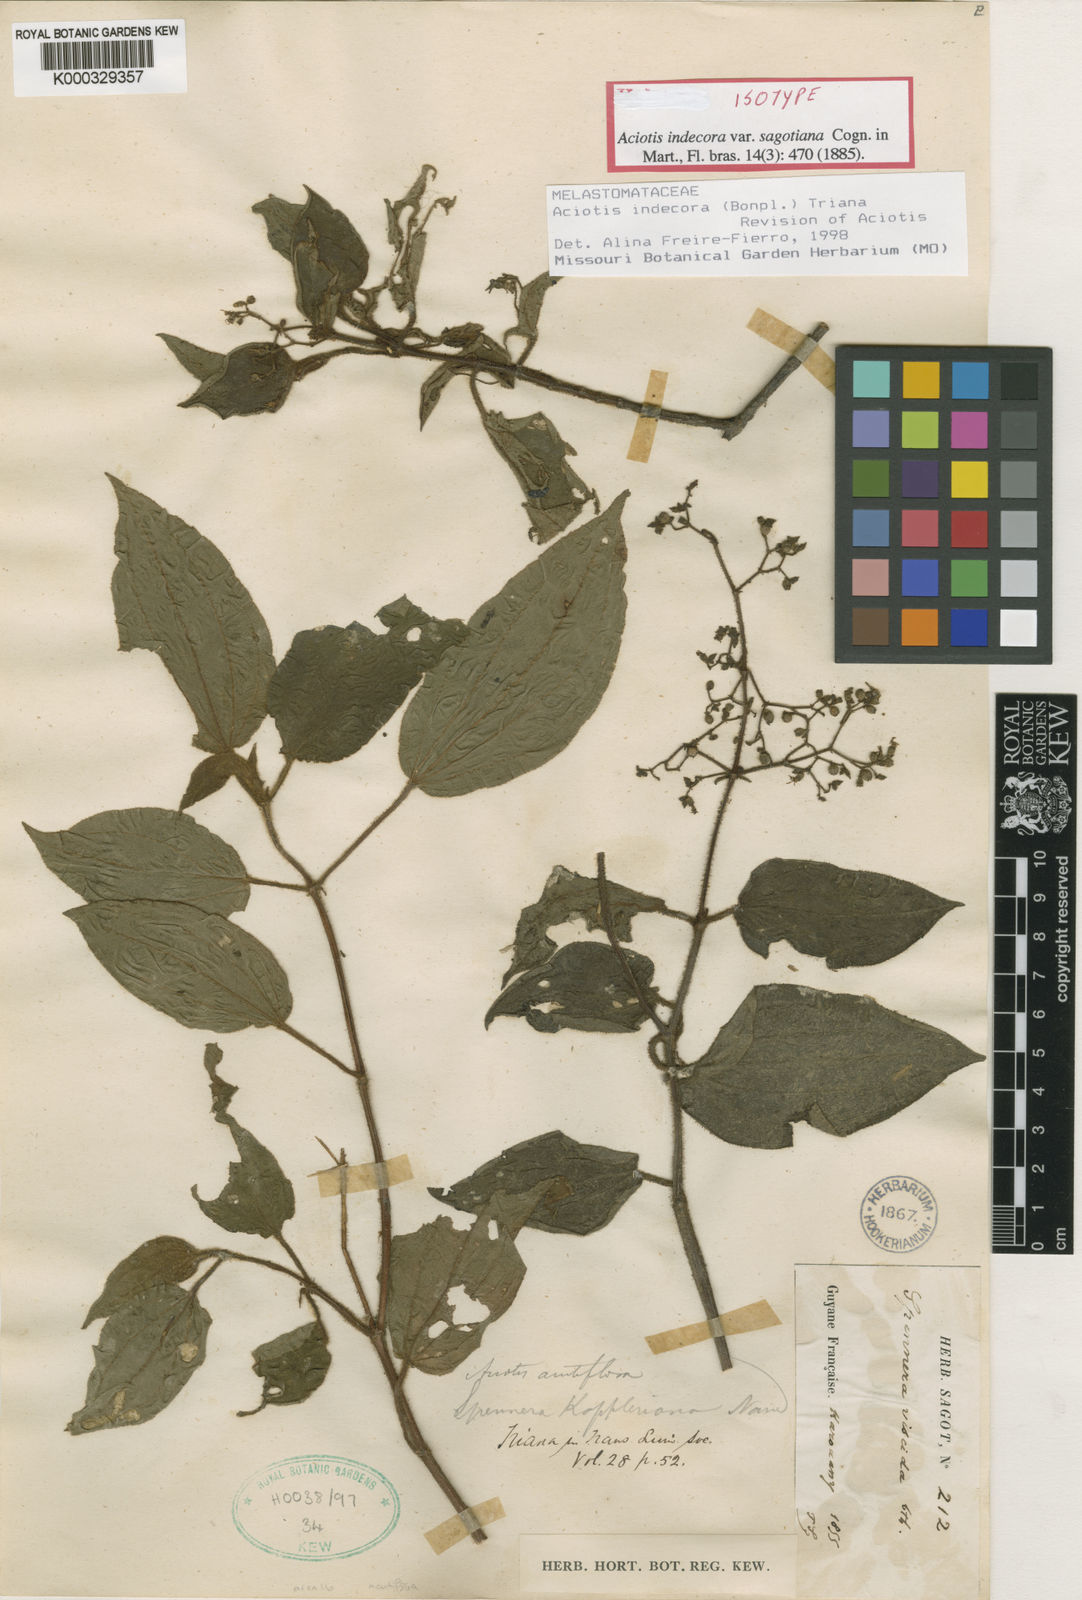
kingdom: Plantae
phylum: Tracheophyta
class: Magnoliopsida
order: Myrtales
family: Melastomataceae
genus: Aciotis
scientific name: Aciotis indecora
